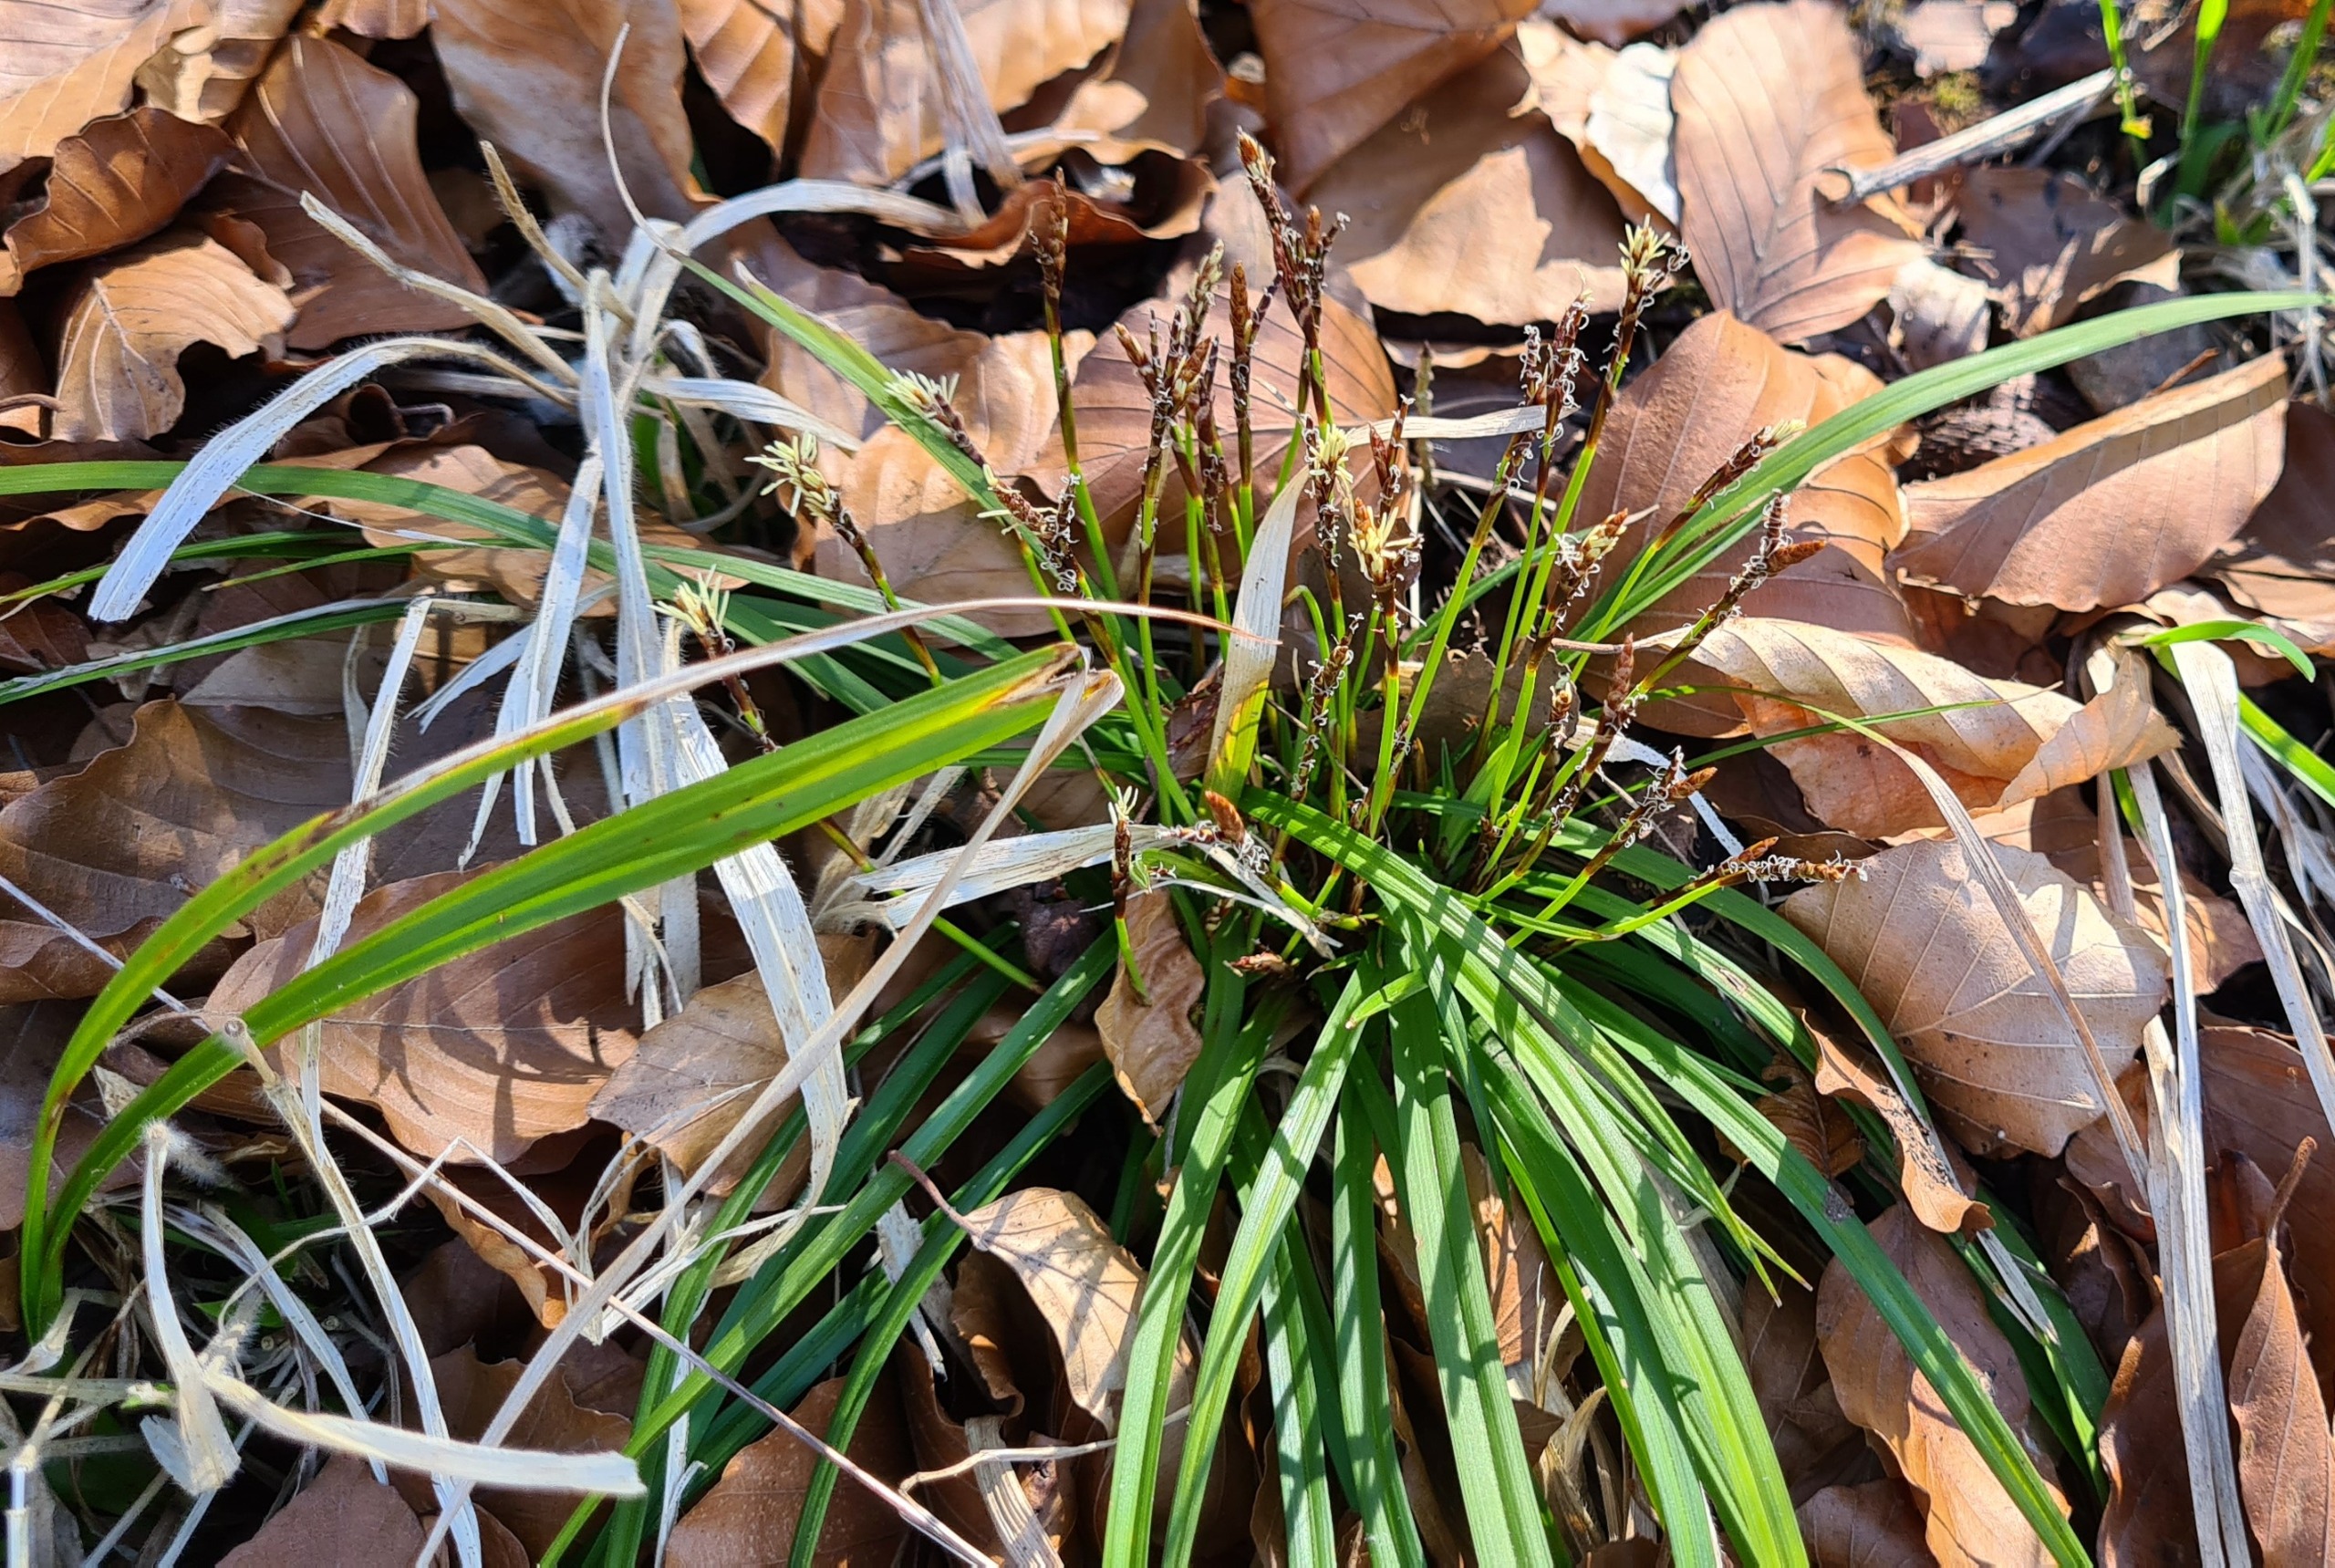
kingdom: Plantae
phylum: Tracheophyta
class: Liliopsida
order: Poales
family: Cyperaceae
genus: Carex
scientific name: Carex digitata
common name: Finger-star
